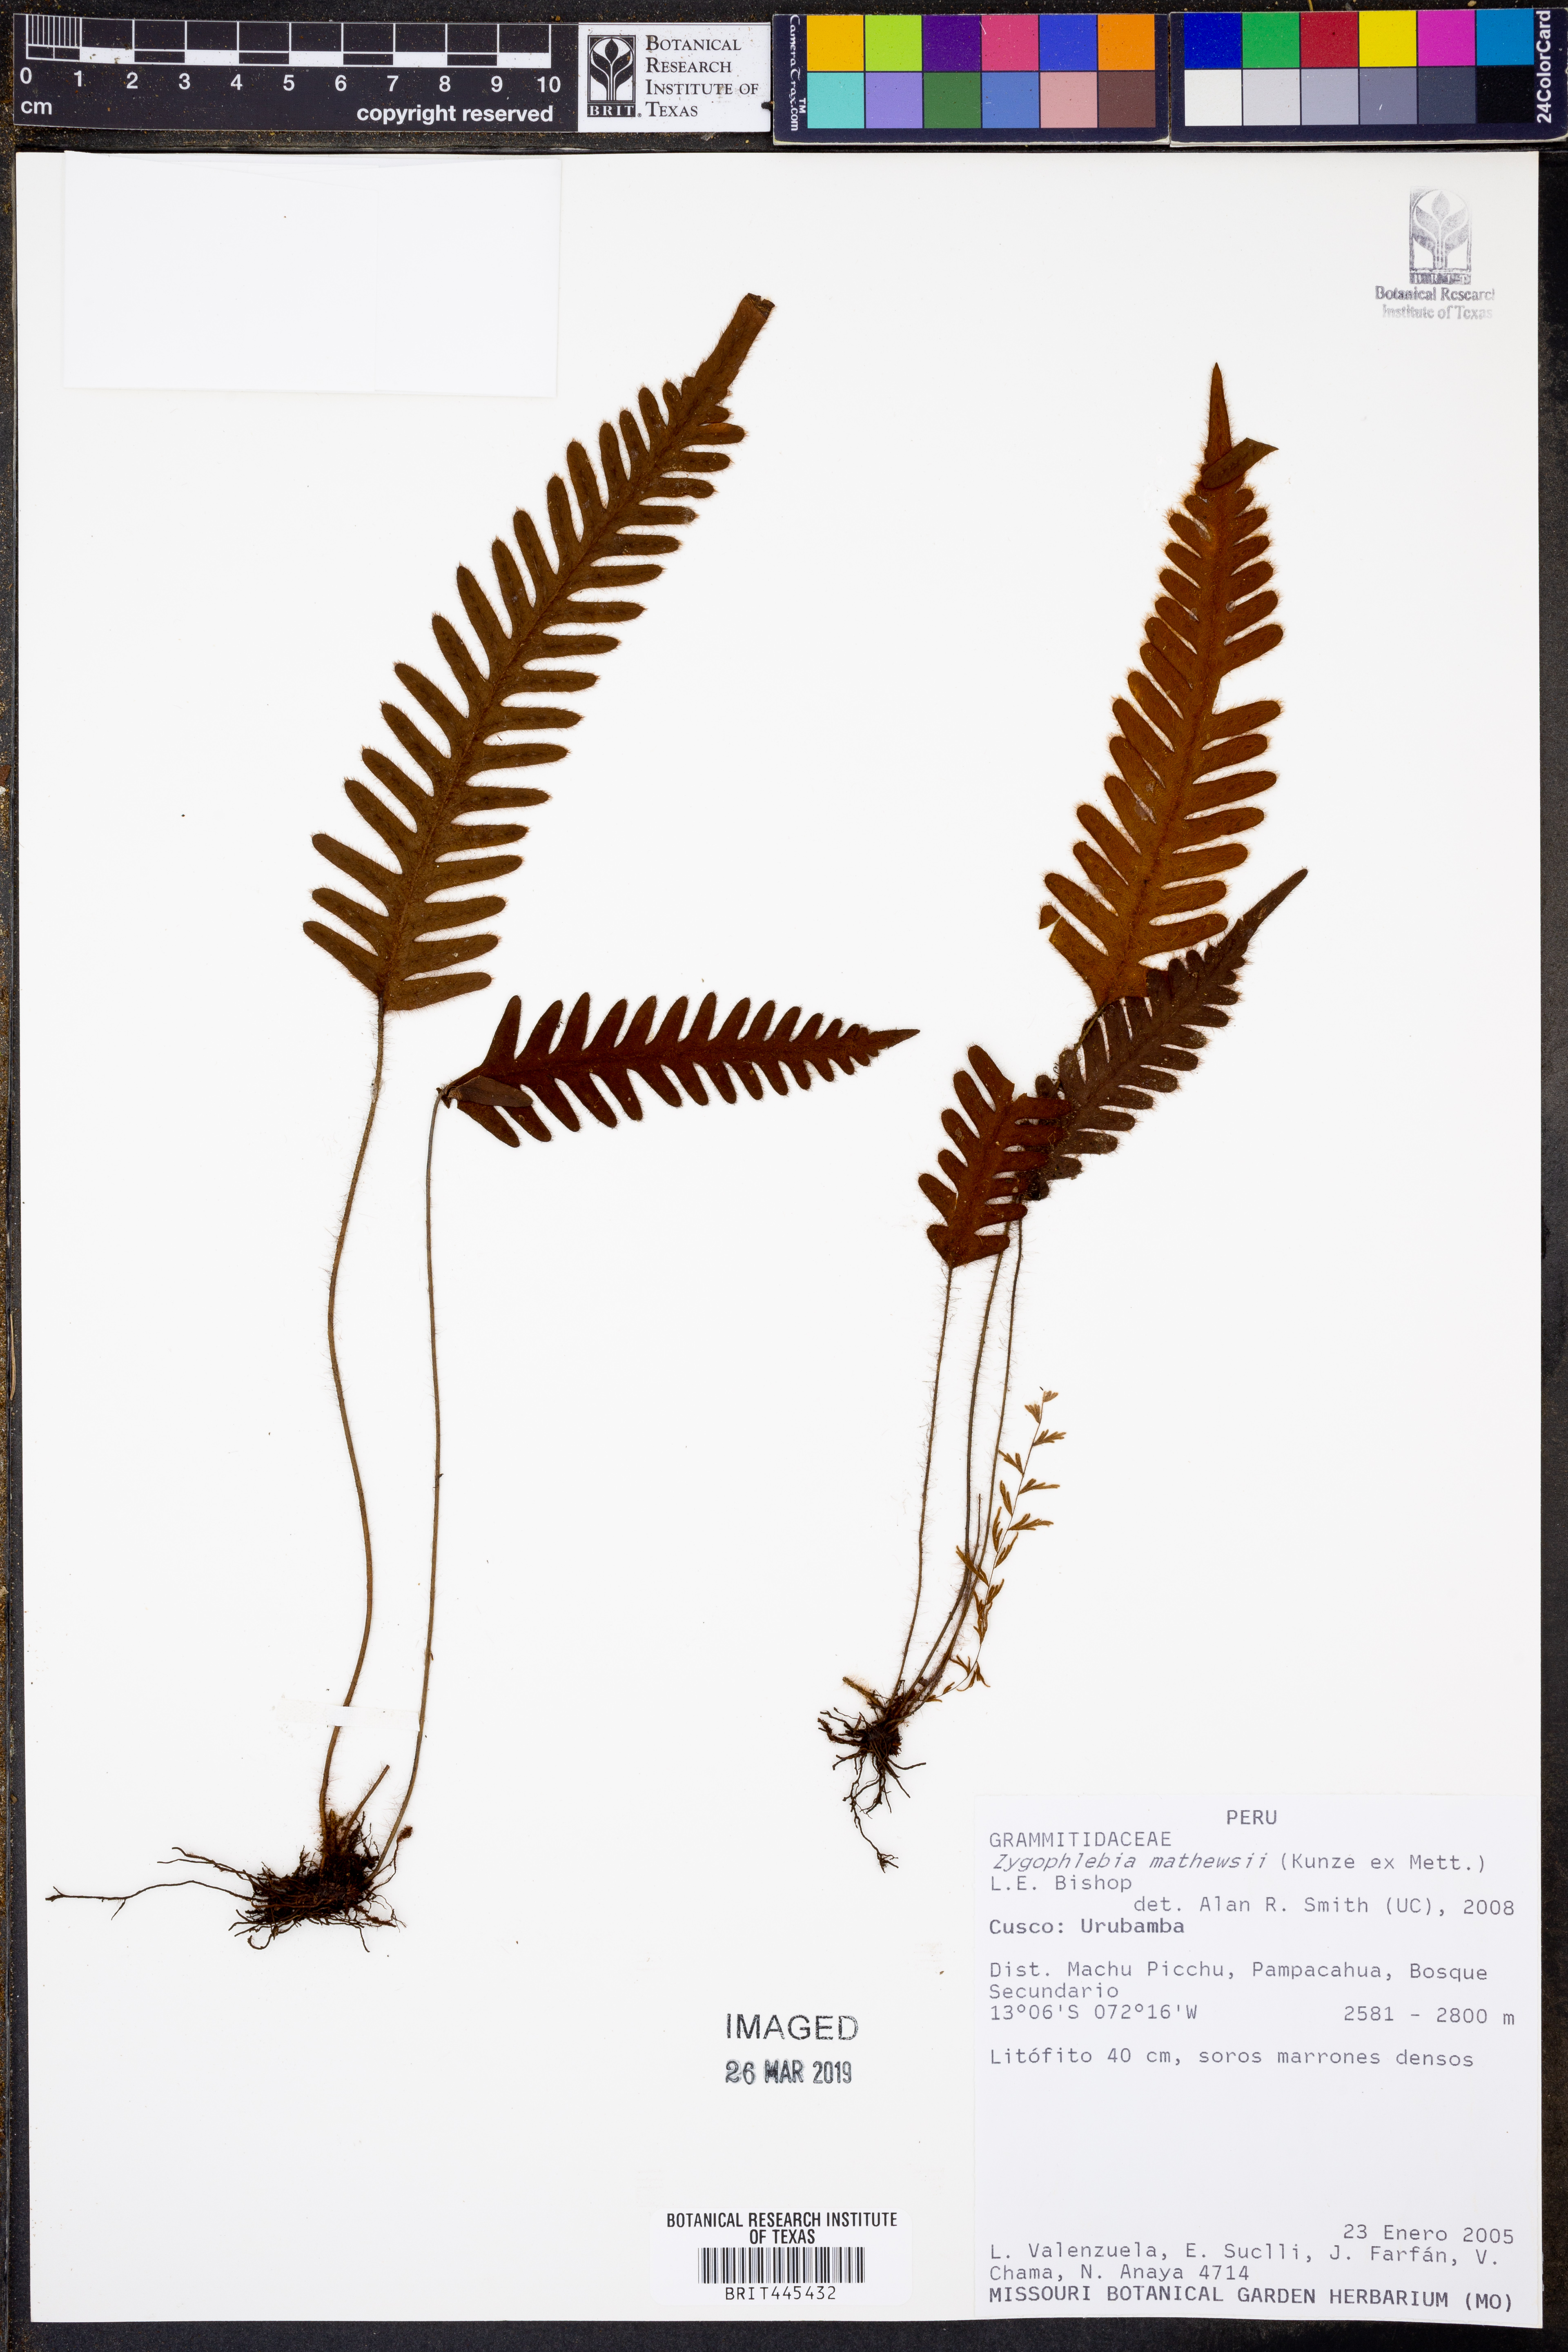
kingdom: Plantae
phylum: Tracheophyta
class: Polypodiopsida
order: Polypodiales
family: Polypodiaceae
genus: Enterosora
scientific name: Enterosora mathewsii
